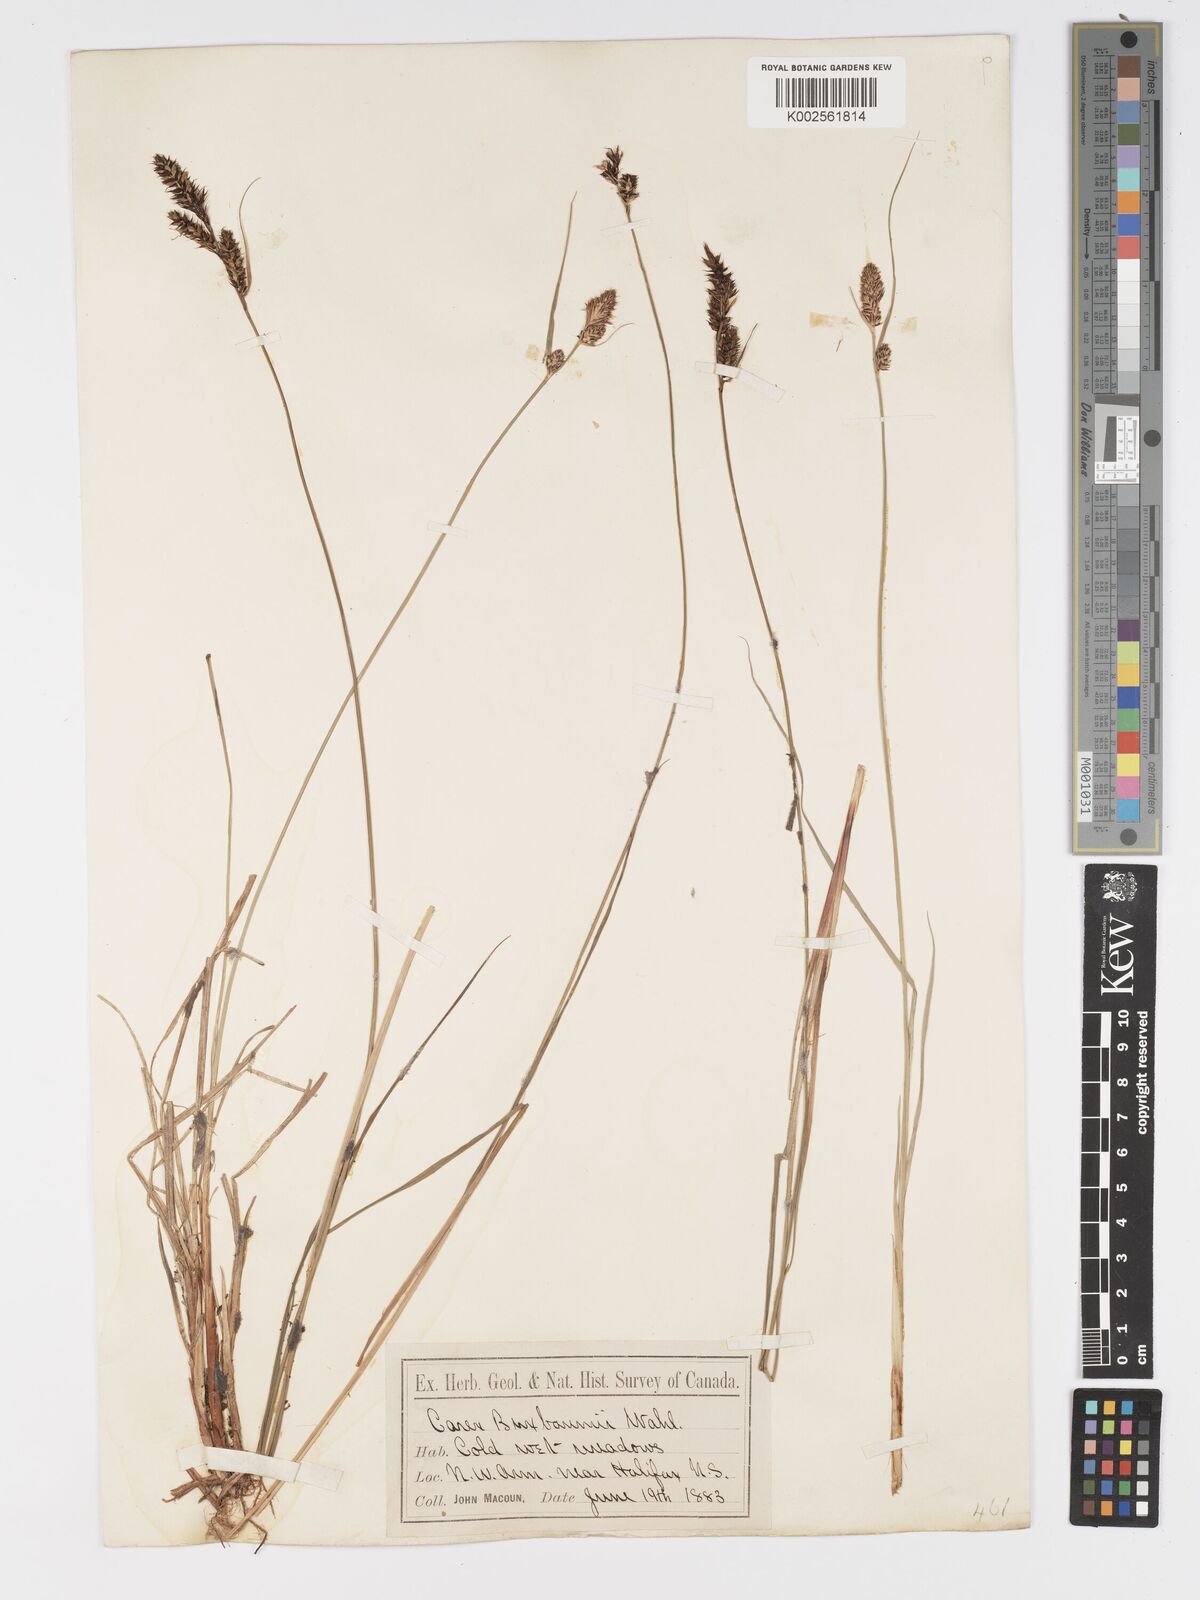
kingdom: Plantae
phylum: Tracheophyta
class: Liliopsida
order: Poales
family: Cyperaceae
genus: Carex
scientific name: Carex buxbaumii
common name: Club sedge
